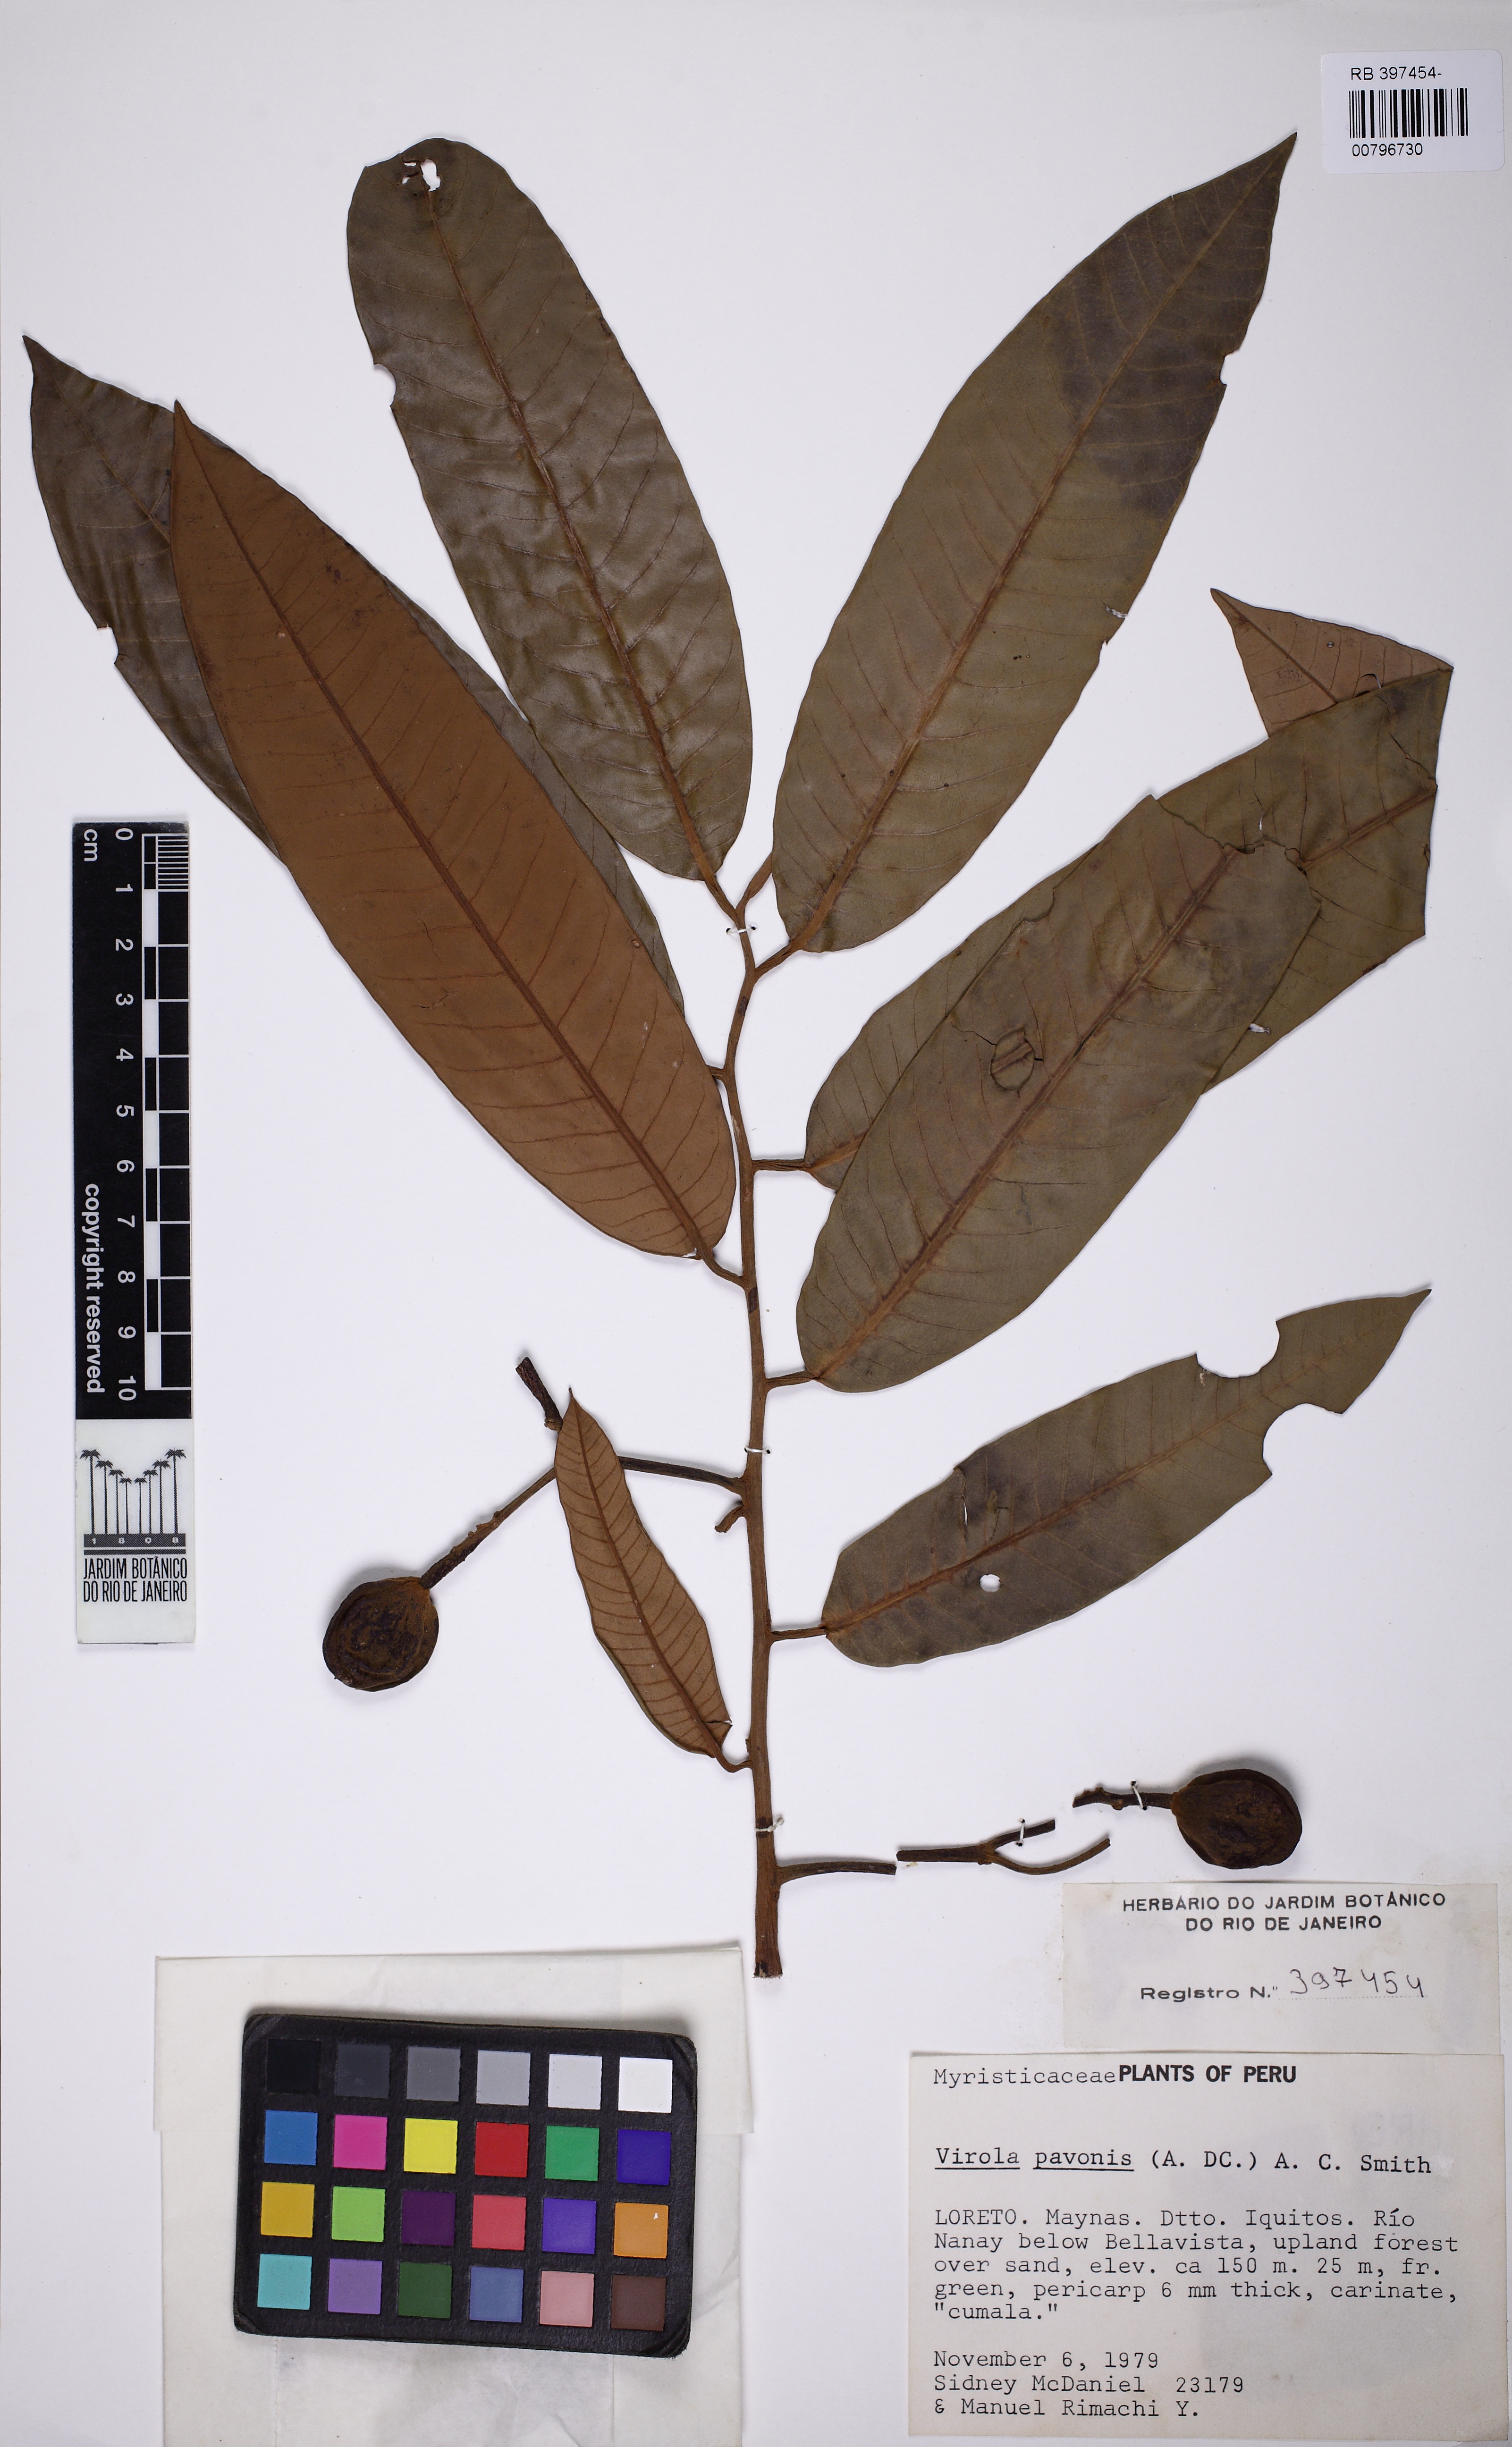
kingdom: Plantae
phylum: Tracheophyta
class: Magnoliopsida
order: Magnoliales
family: Myristicaceae
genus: Virola
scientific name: Virola pavonis
